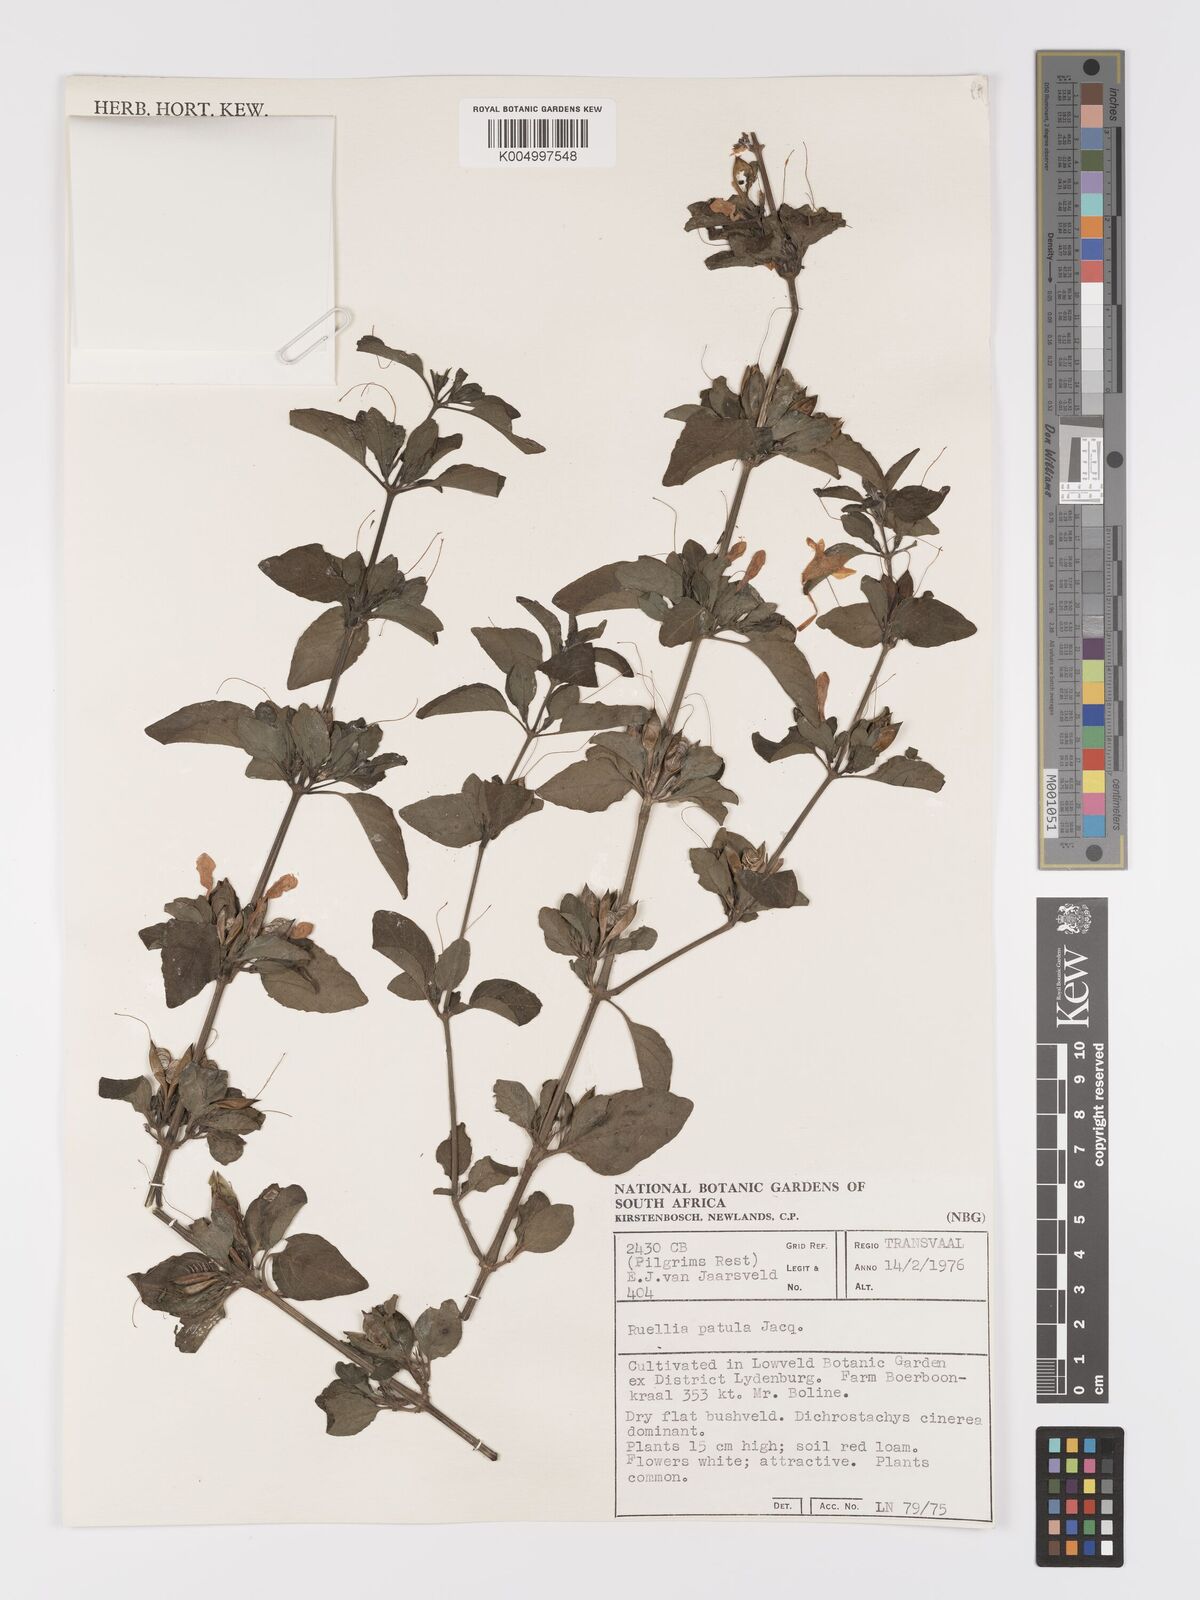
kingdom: Plantae
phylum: Tracheophyta
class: Magnoliopsida
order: Lamiales
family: Acanthaceae
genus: Ruellia
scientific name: Ruellia patula
